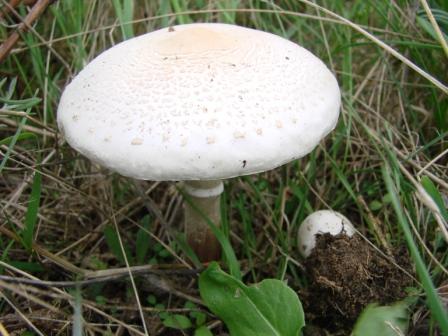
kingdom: Fungi
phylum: Basidiomycota
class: Agaricomycetes
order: Agaricales
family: Agaricaceae
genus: Macrolepiota
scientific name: Macrolepiota excoriata
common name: mark-kæmpeparasolhat
